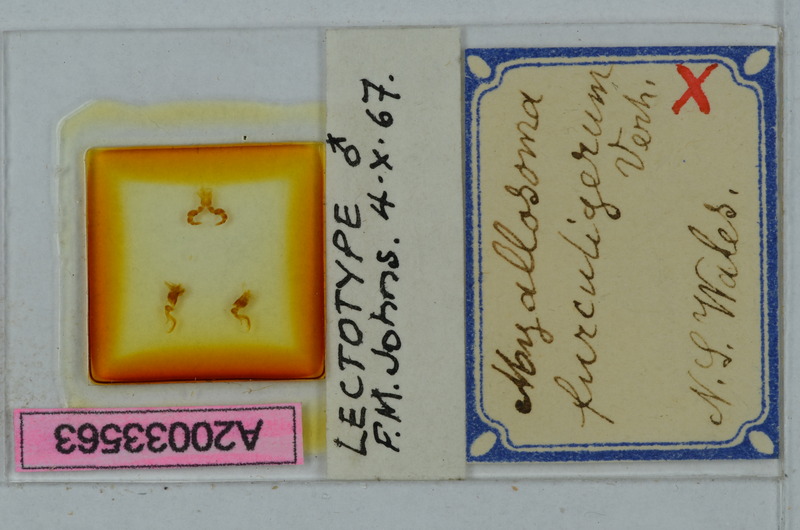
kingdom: Animalia
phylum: Arthropoda
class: Diplopoda
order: Polydesmida
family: Paradoxosomatidae
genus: Myallosoma
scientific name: Myallosoma furculigerum
